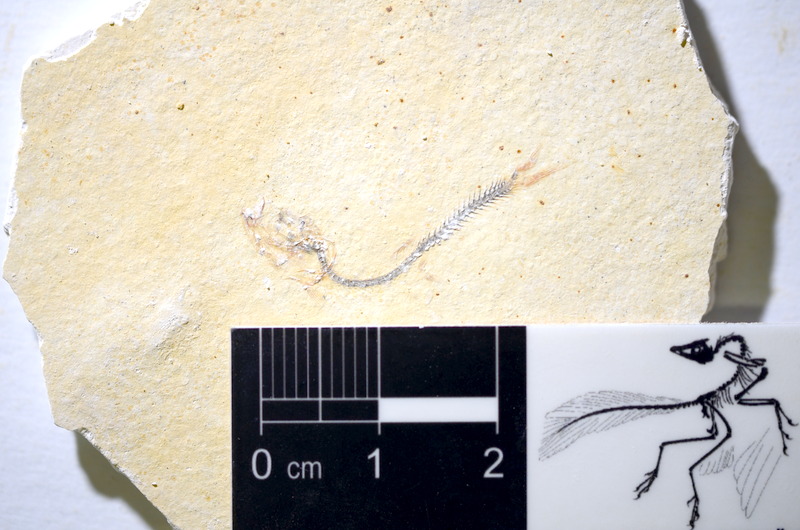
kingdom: Animalia
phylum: Chordata
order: Salmoniformes
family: Orthogonikleithridae
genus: Orthogonikleithrus
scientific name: Orthogonikleithrus hoelli
